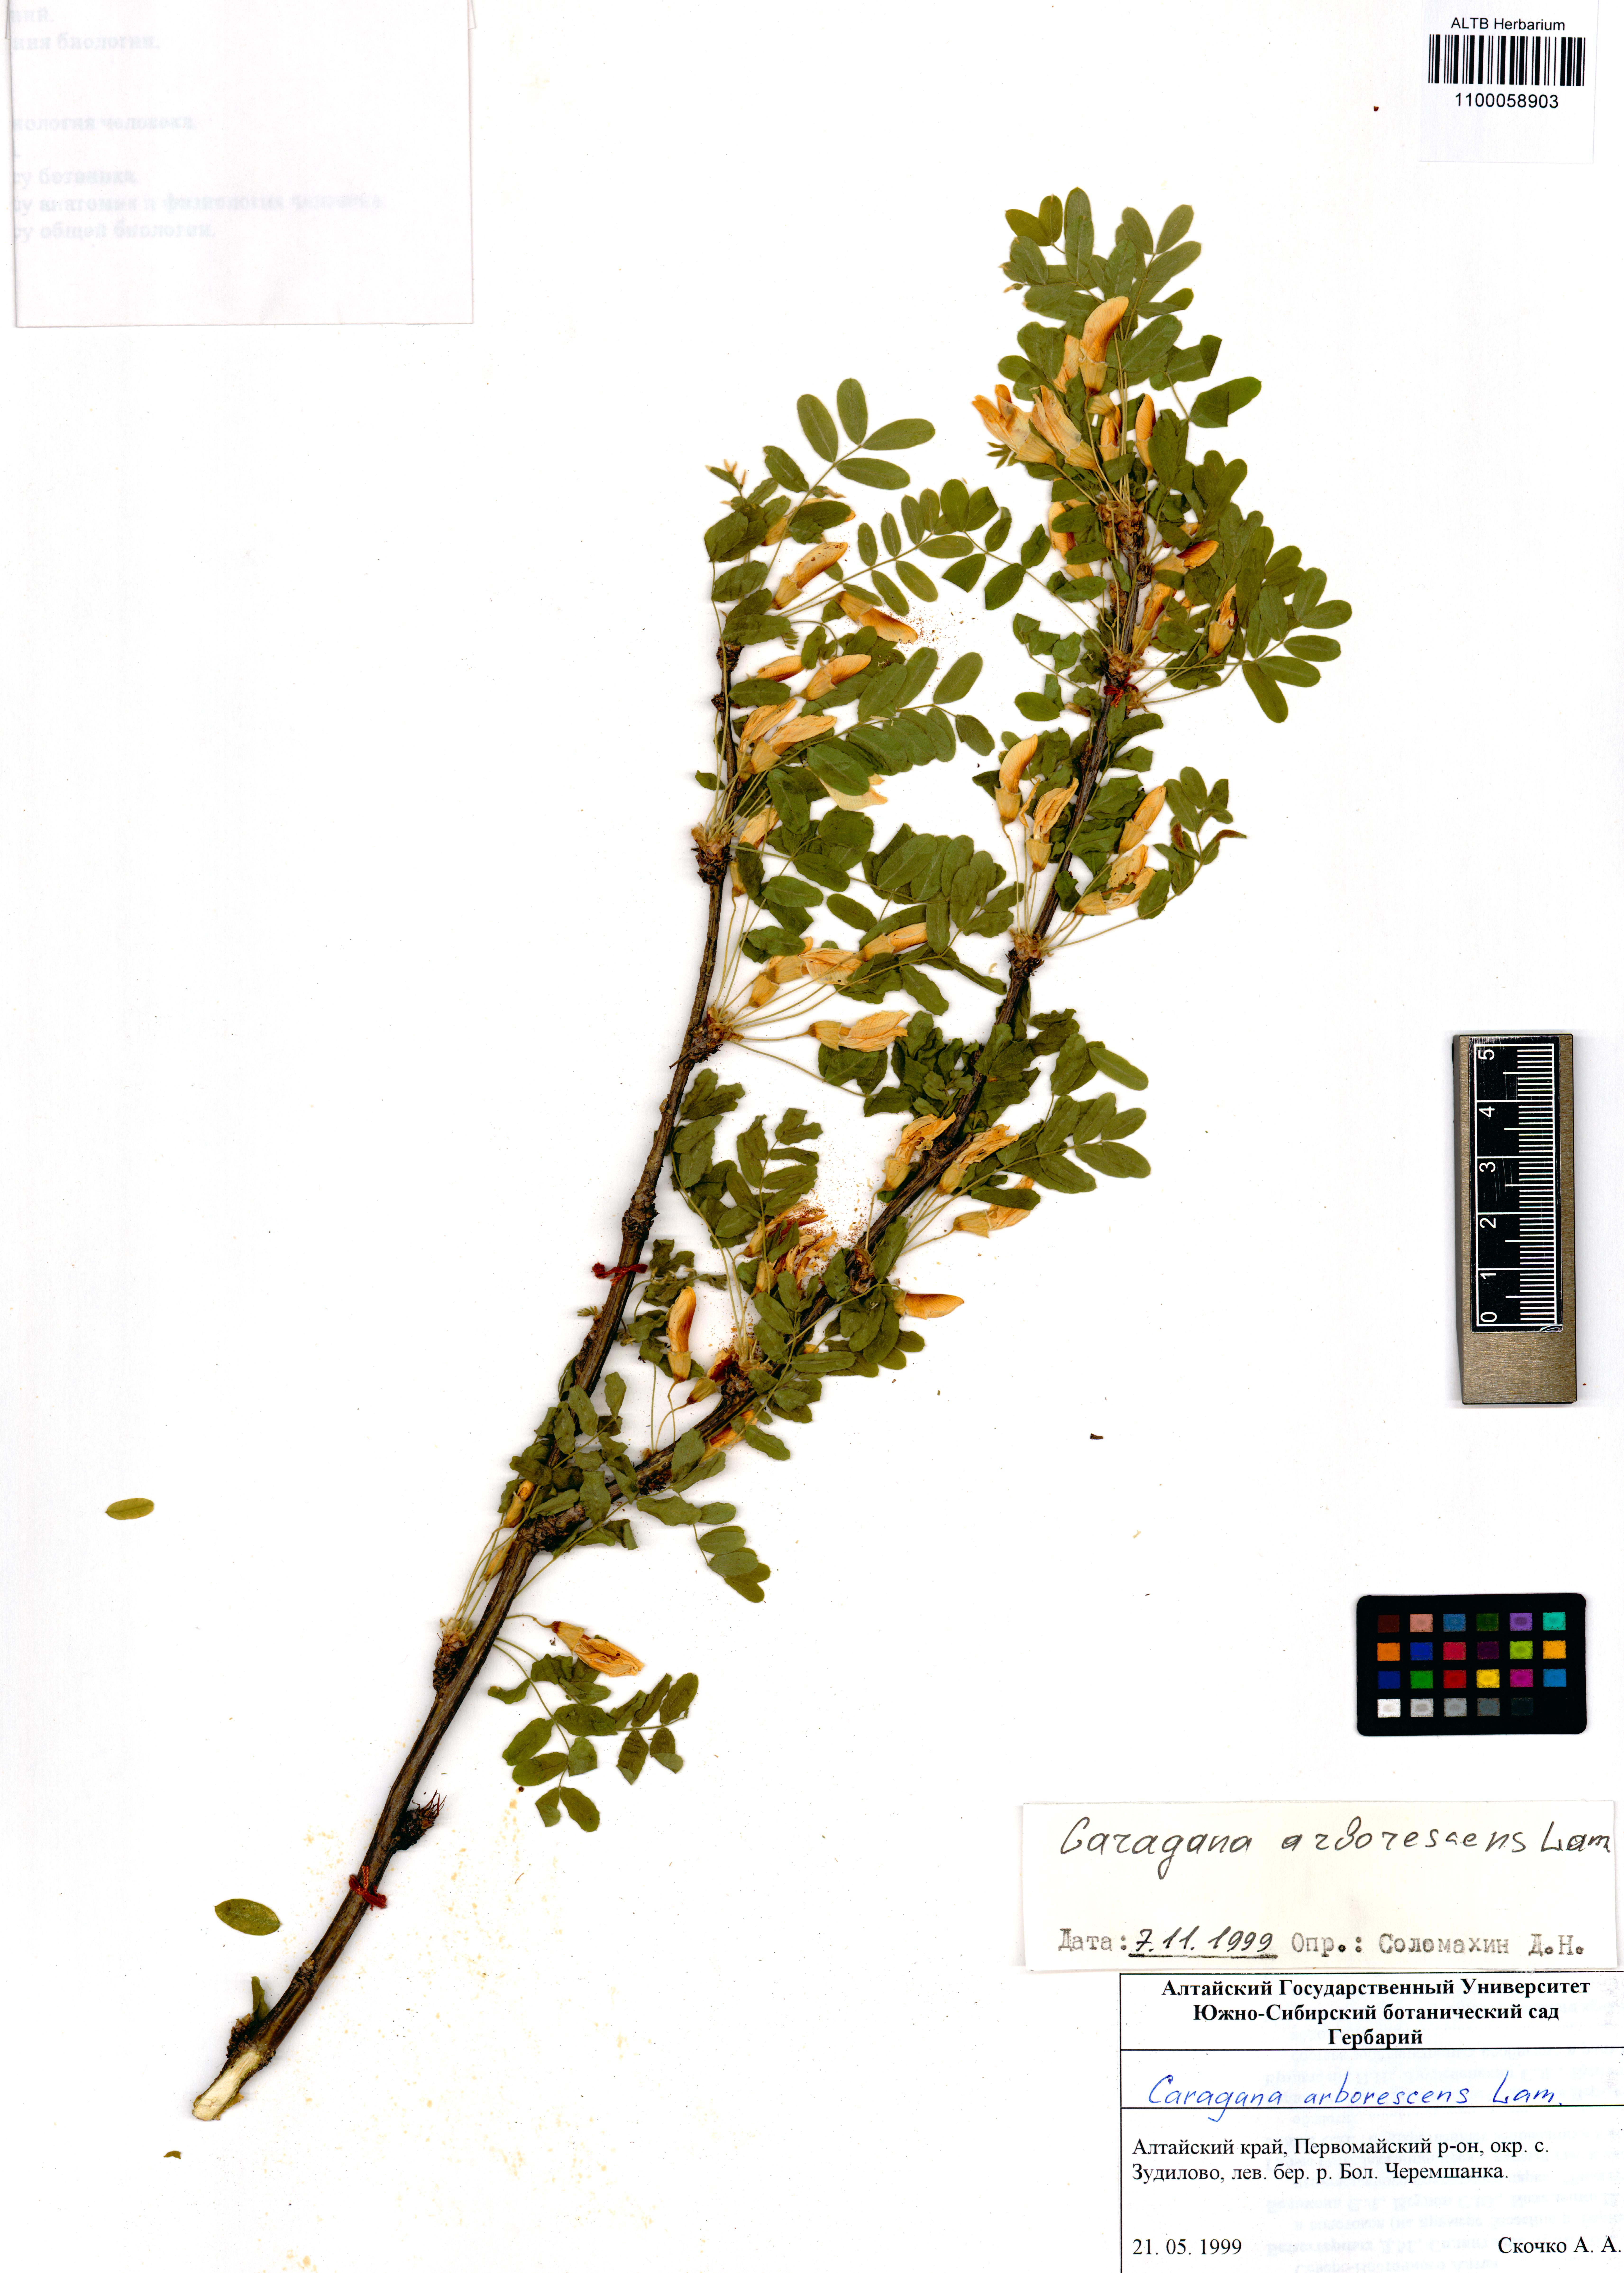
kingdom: Plantae
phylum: Tracheophyta
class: Magnoliopsida
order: Fabales
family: Fabaceae
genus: Caragana
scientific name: Caragana arborescens
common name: Siberian peashrub
